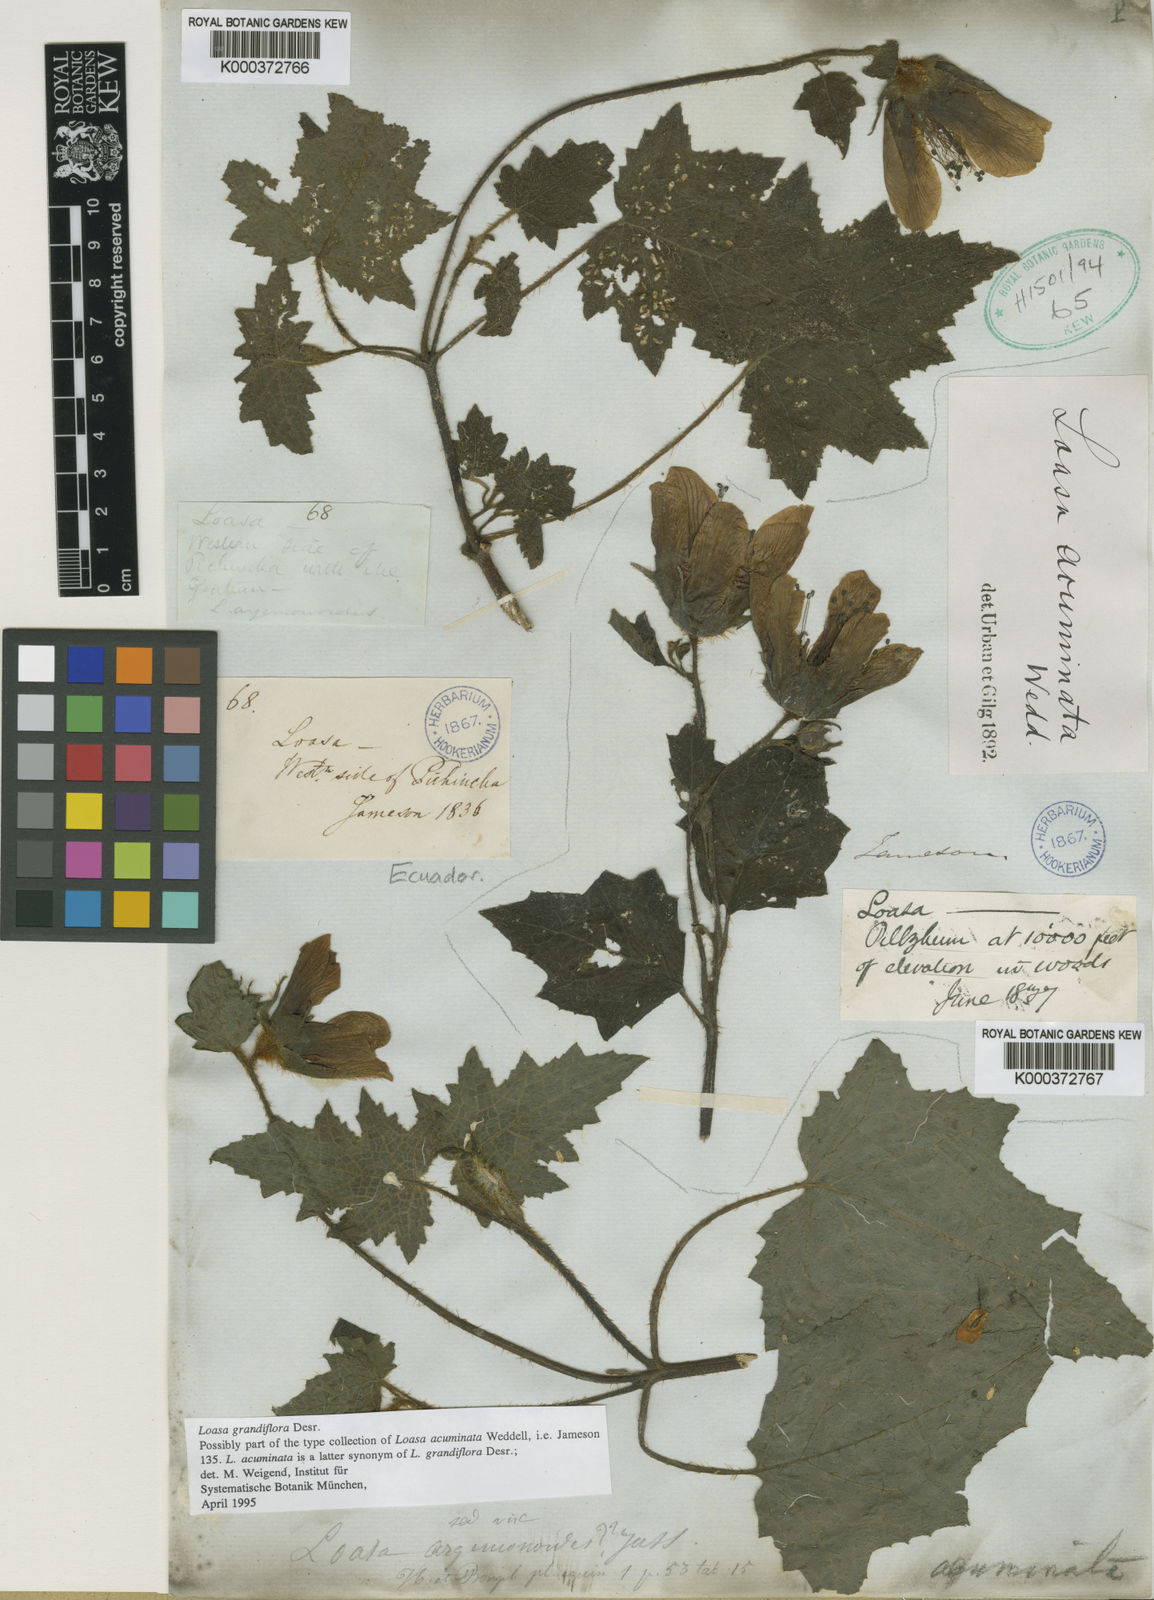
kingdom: Plantae
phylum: Tracheophyta
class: Magnoliopsida
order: Cornales
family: Loasaceae
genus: Nasa
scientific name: Nasa grandiflora
